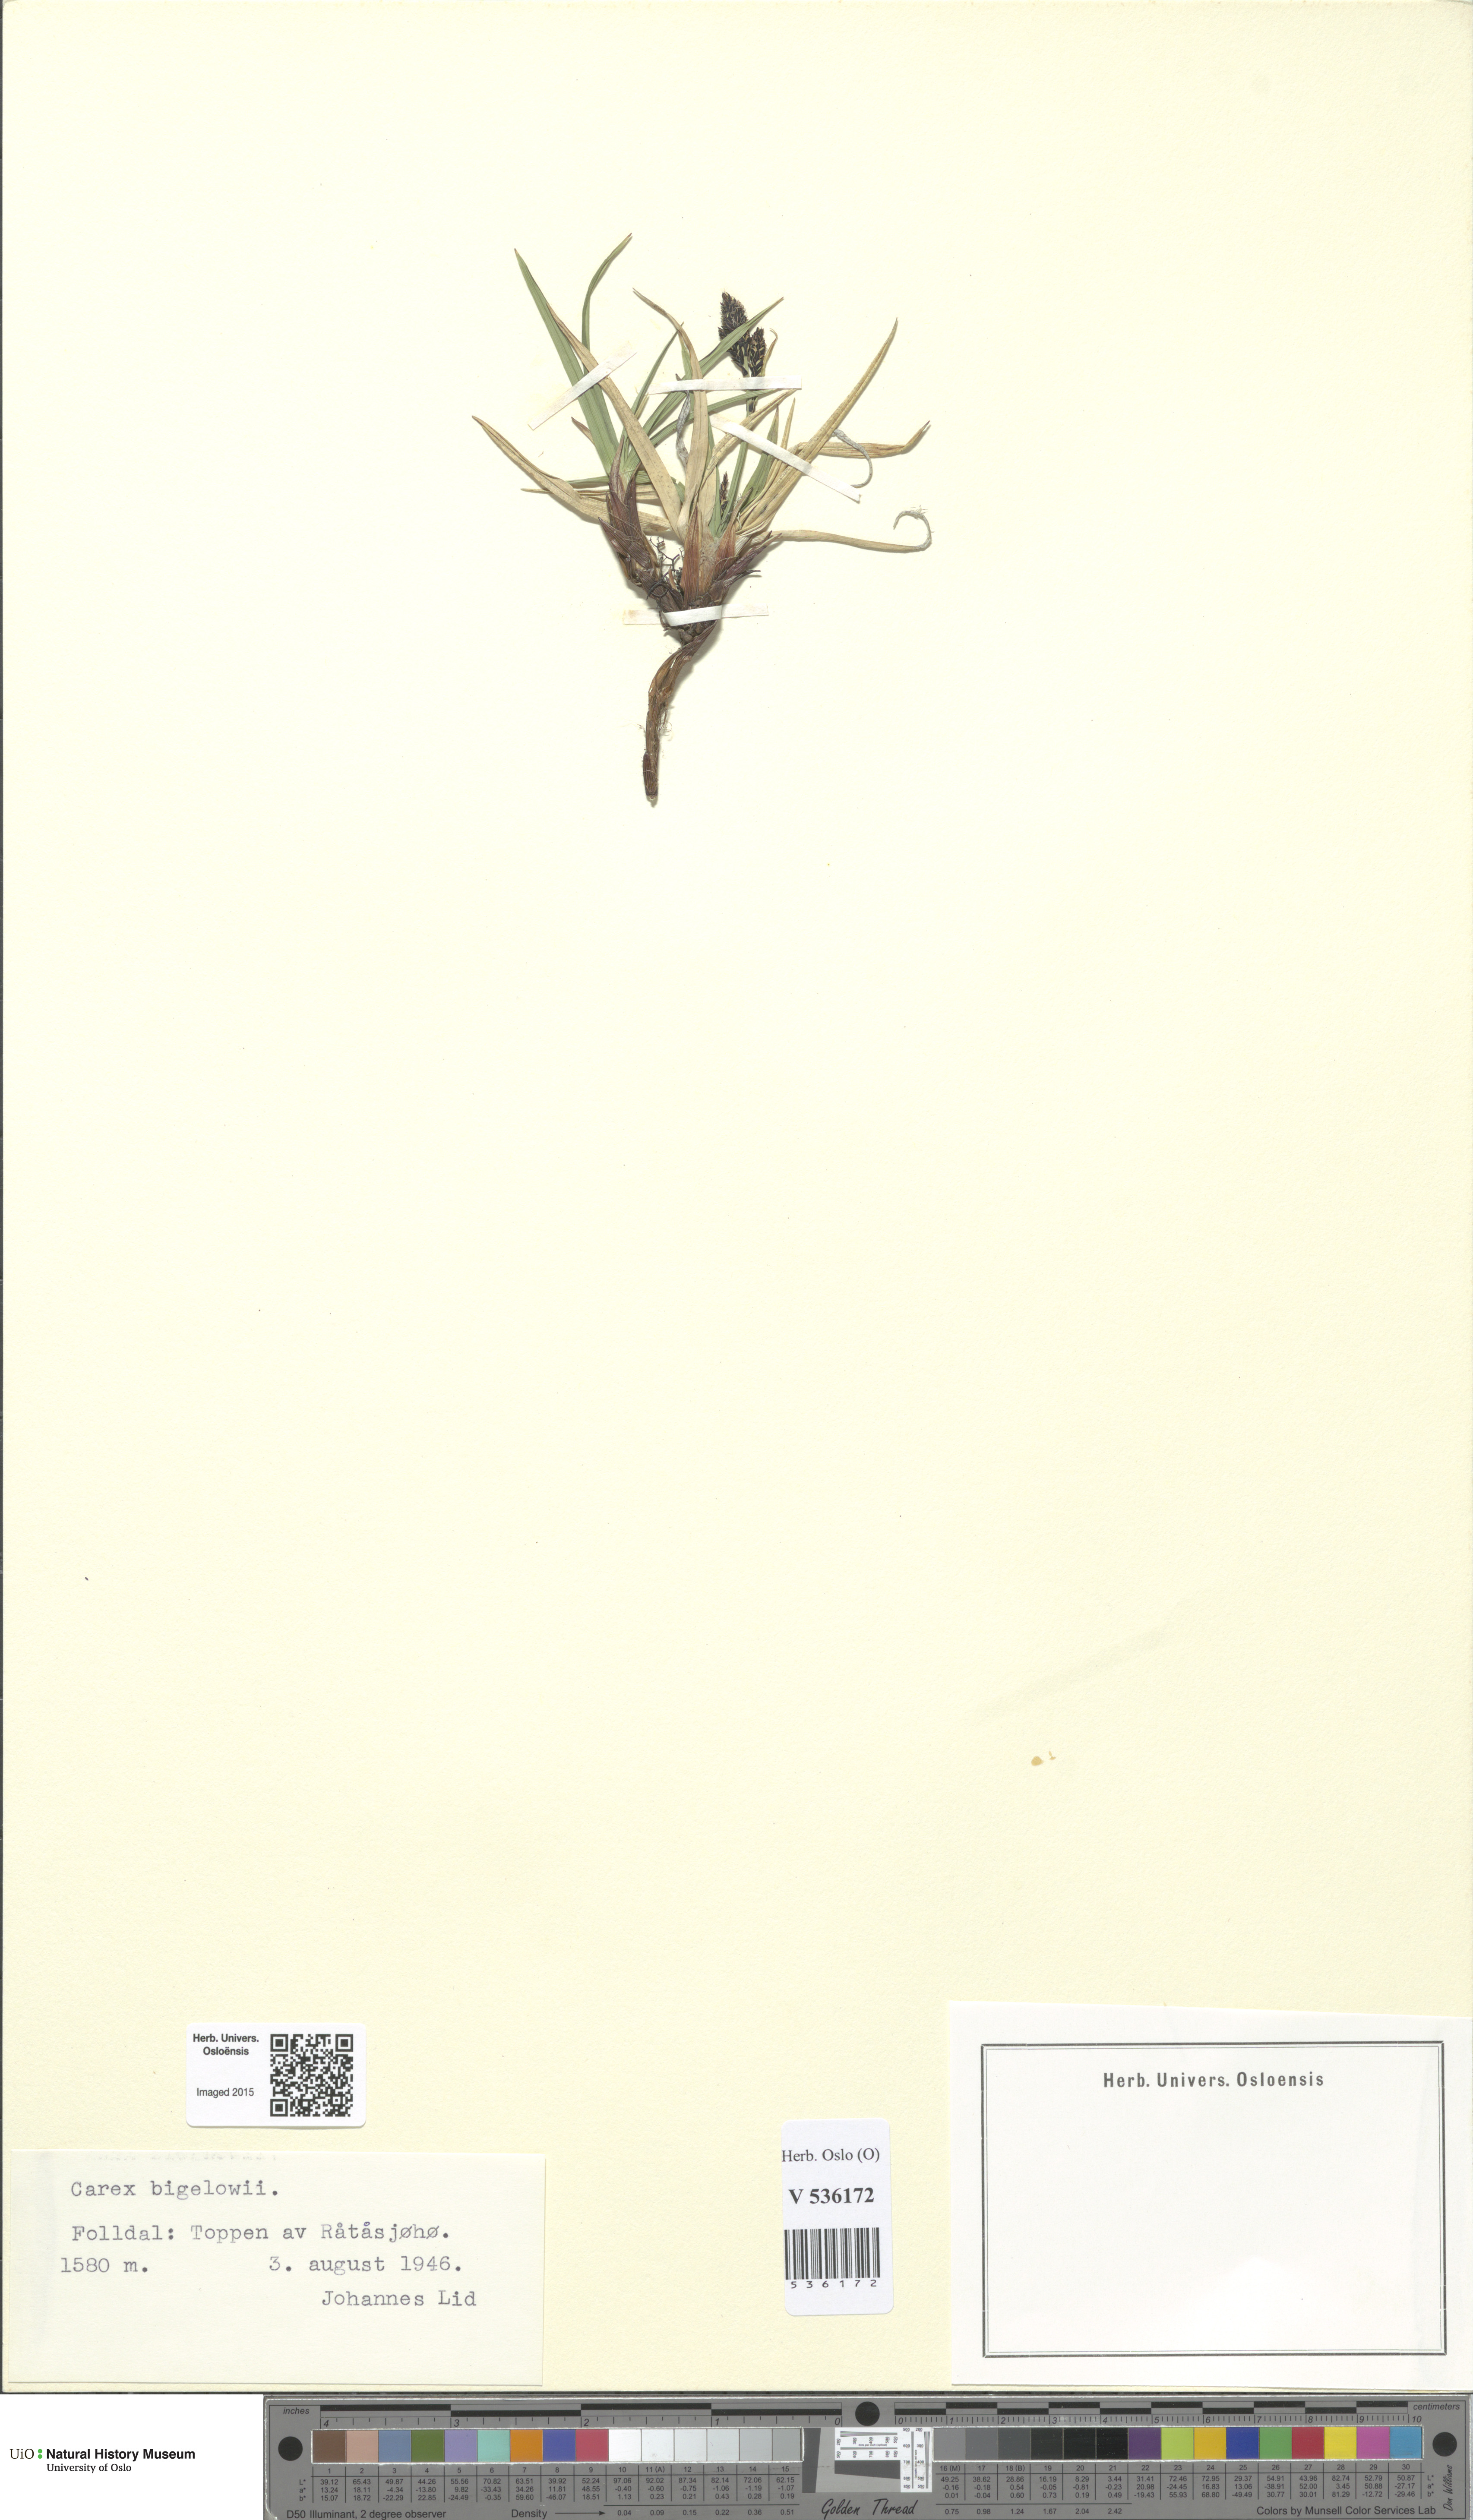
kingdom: Plantae
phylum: Tracheophyta
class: Liliopsida
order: Poales
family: Cyperaceae
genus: Carex
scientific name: Carex bigelowii
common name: Stiff sedge
